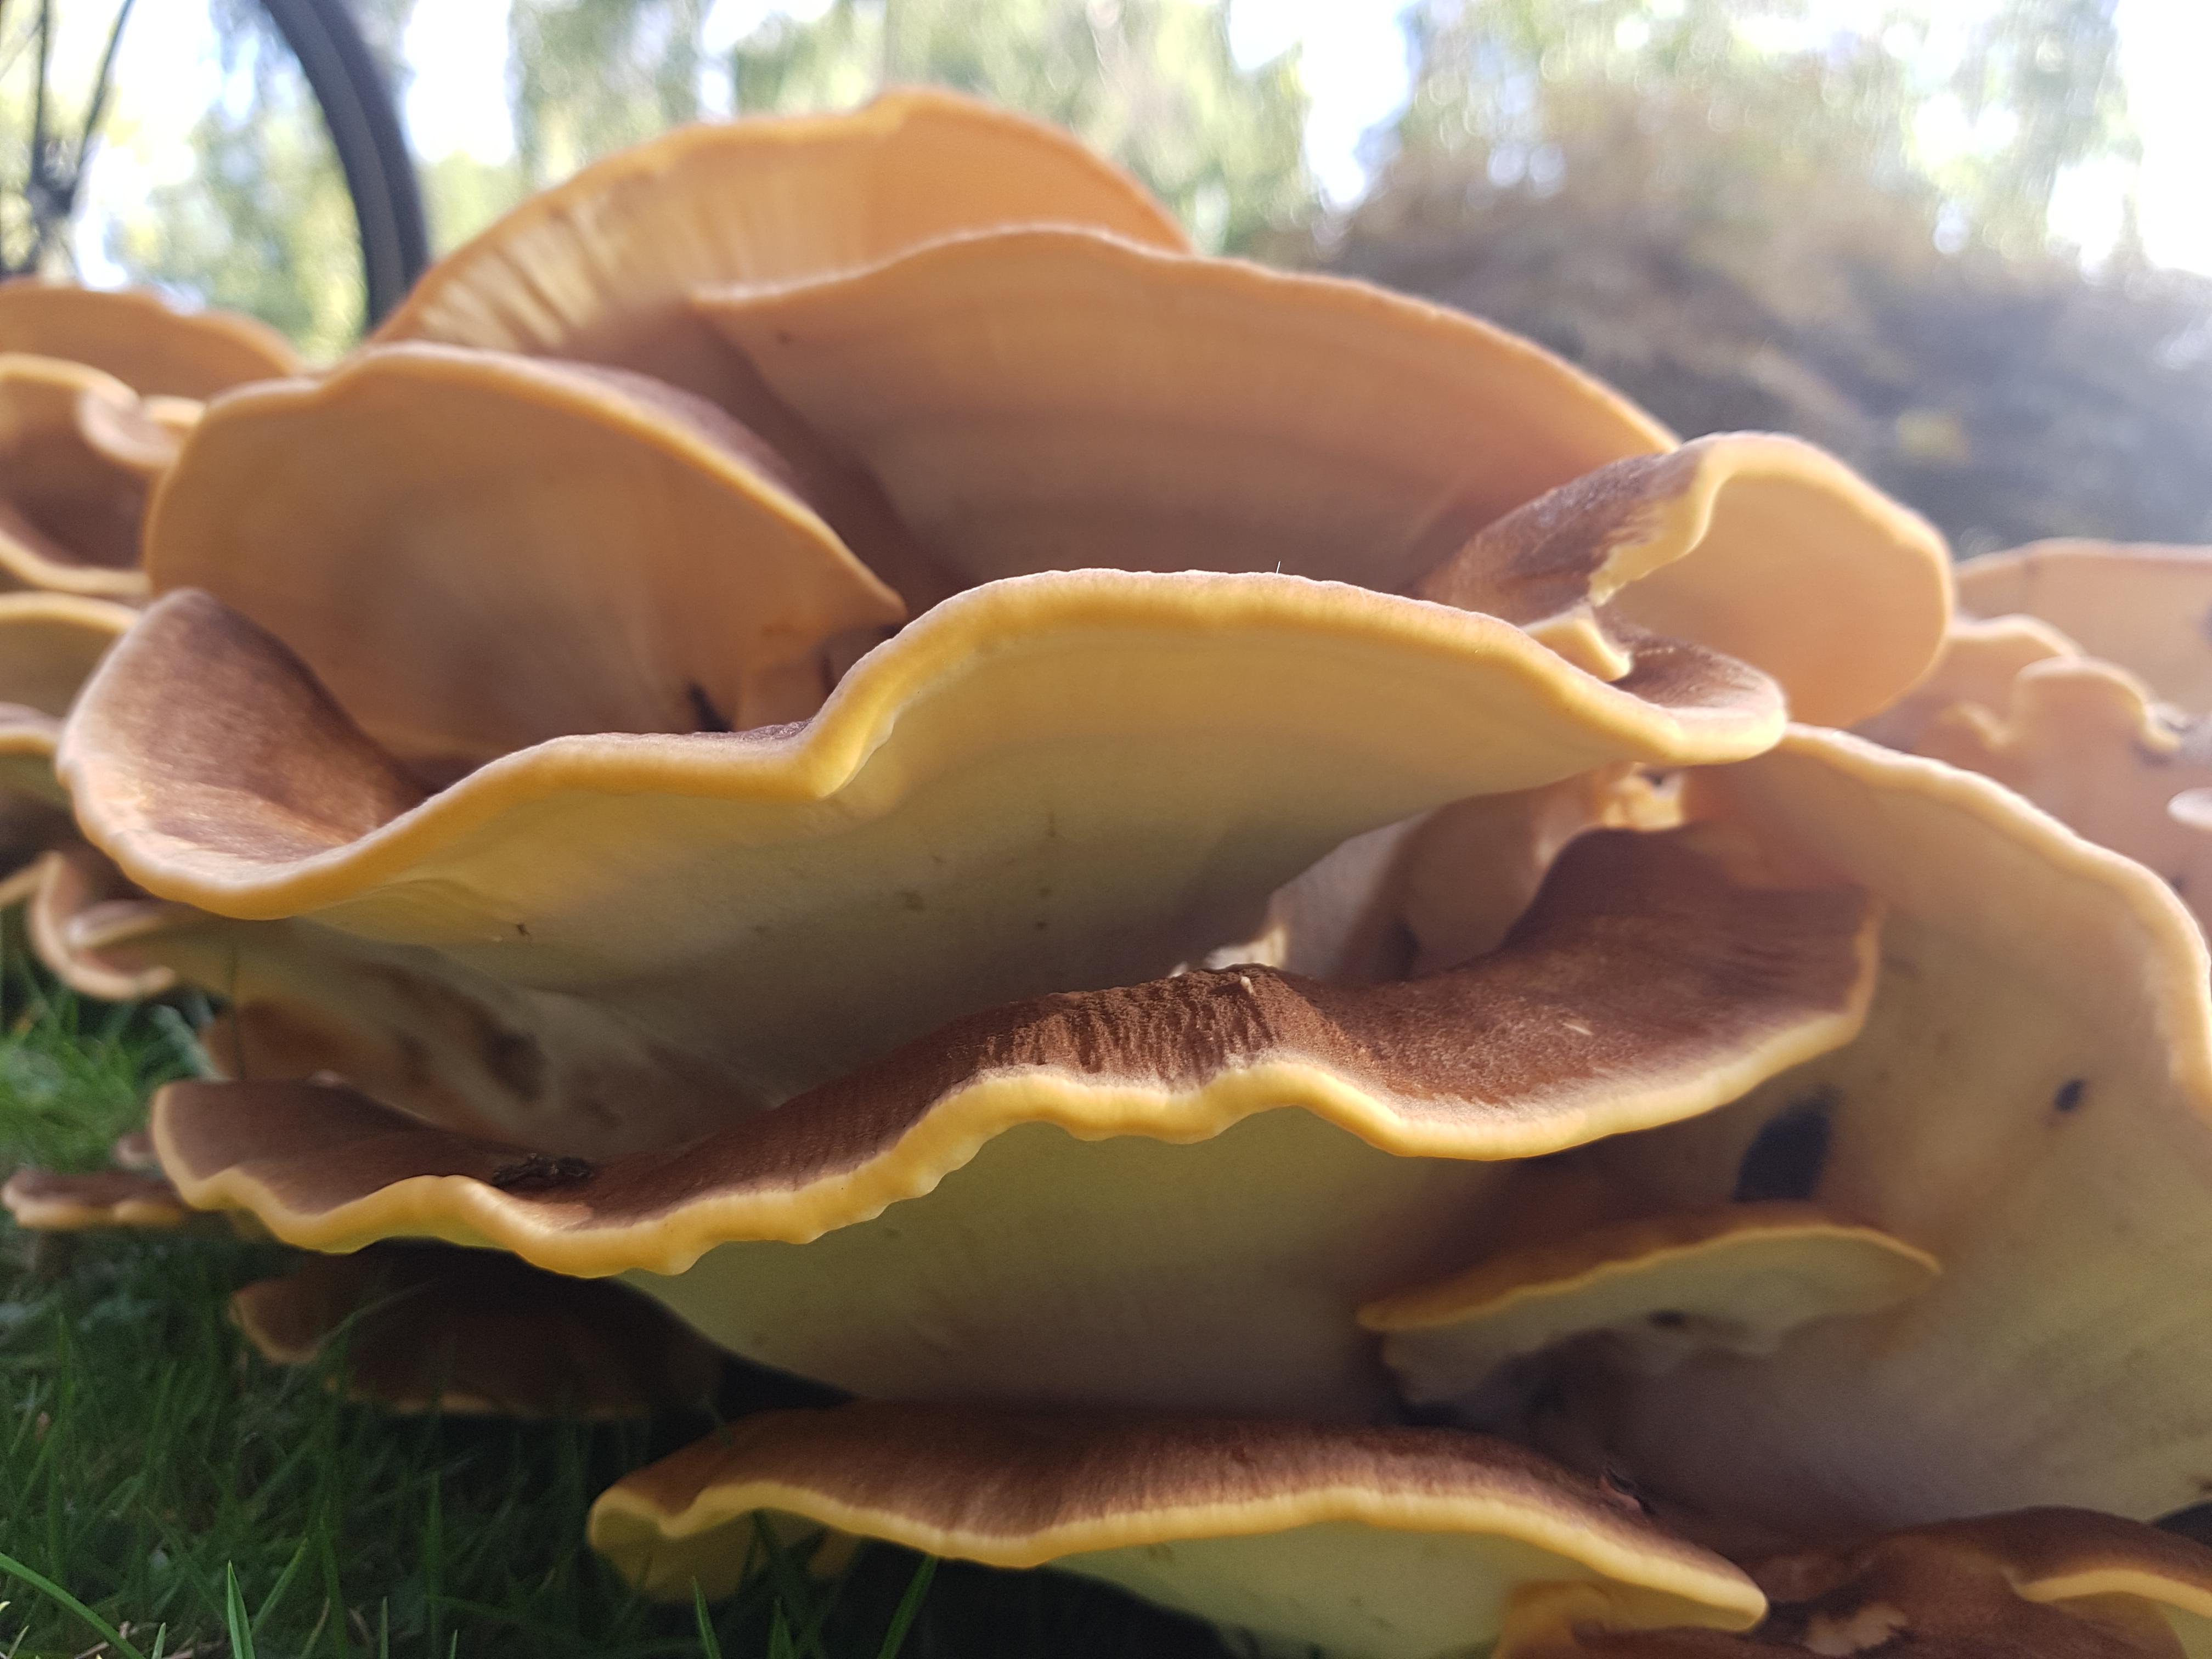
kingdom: Fungi
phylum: Basidiomycota
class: Agaricomycetes
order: Polyporales
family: Meripilaceae
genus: Meripilus
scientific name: Meripilus giganteus
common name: kæmpeporesvamp
